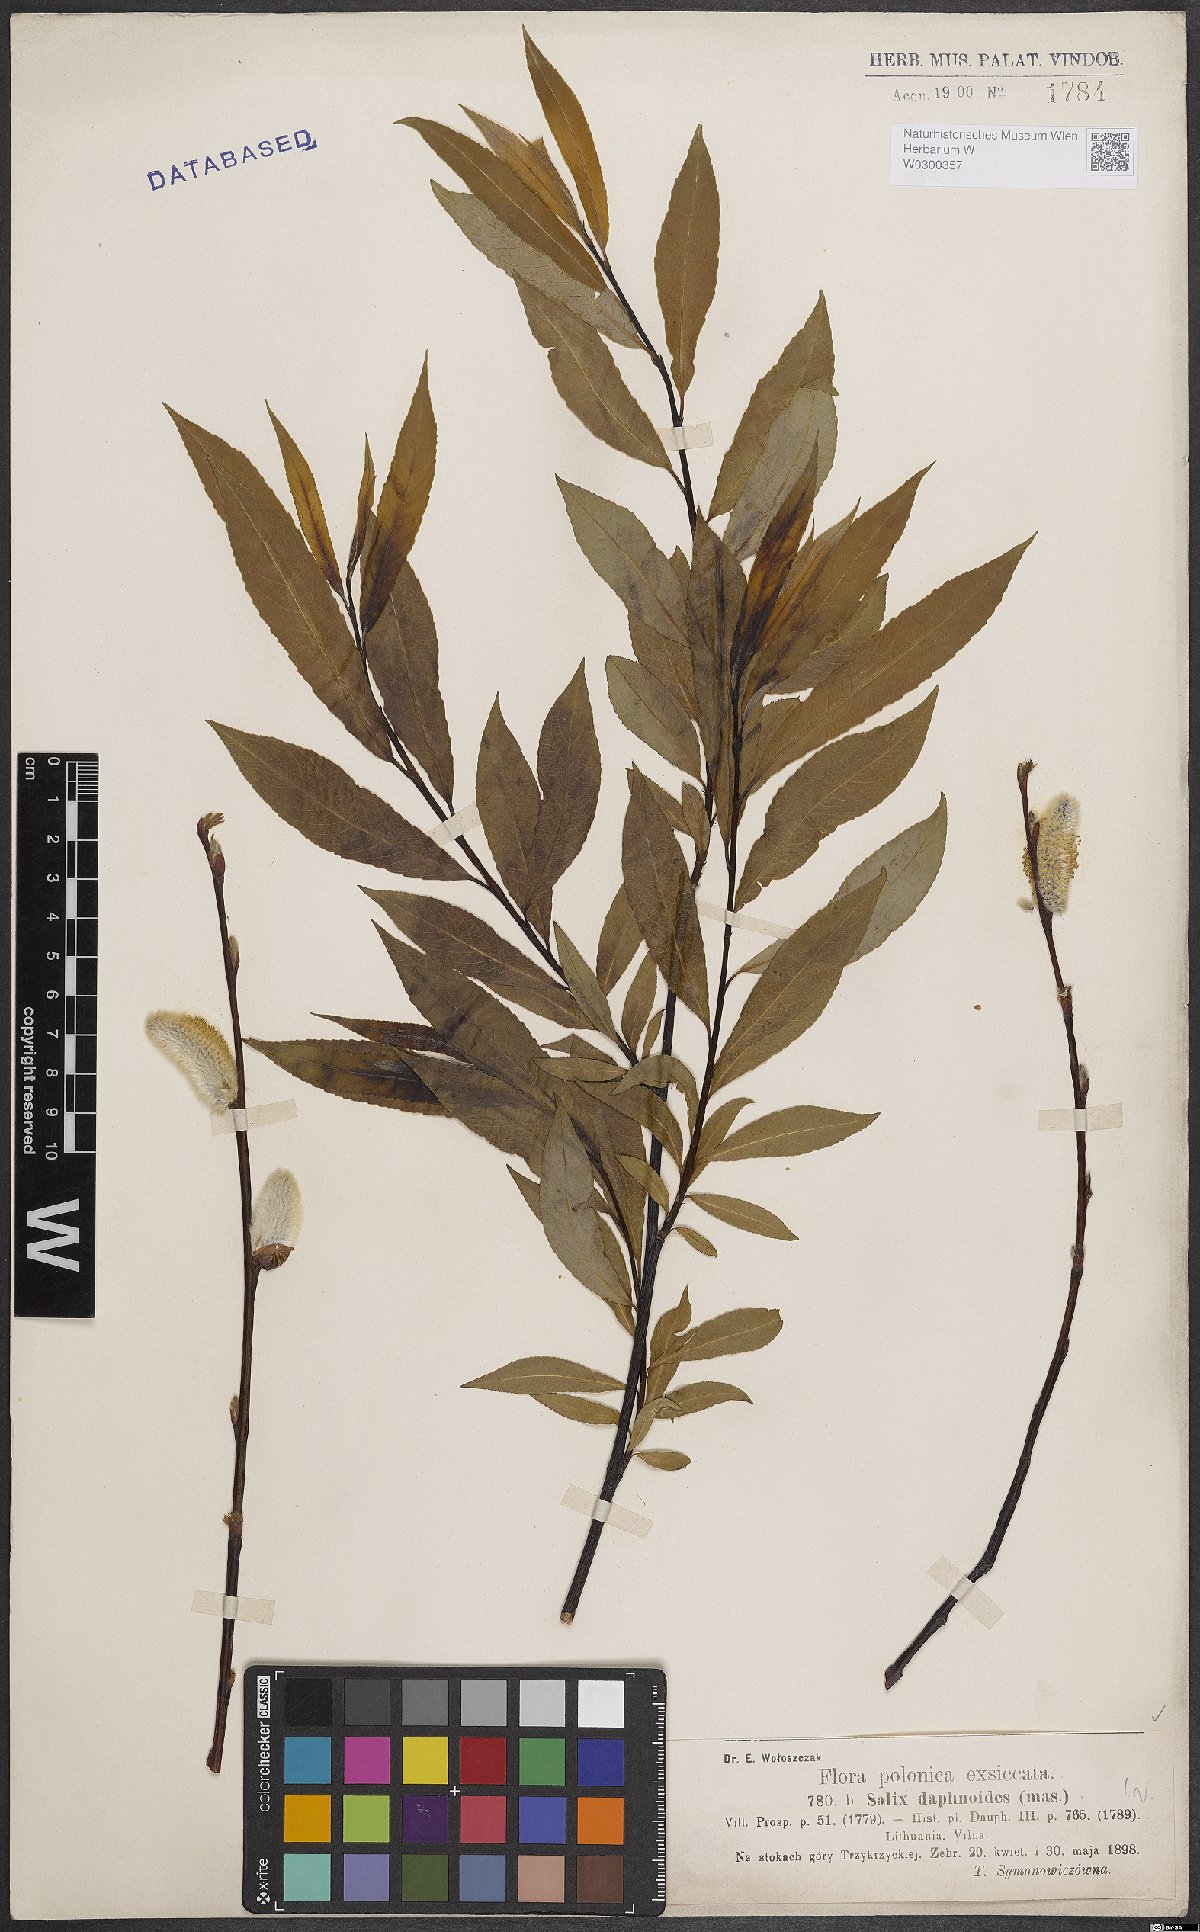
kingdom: Plantae
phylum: Tracheophyta
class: Magnoliopsida
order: Malpighiales
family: Salicaceae
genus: Salix
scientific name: Salix daphnoides
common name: European violet-willow
